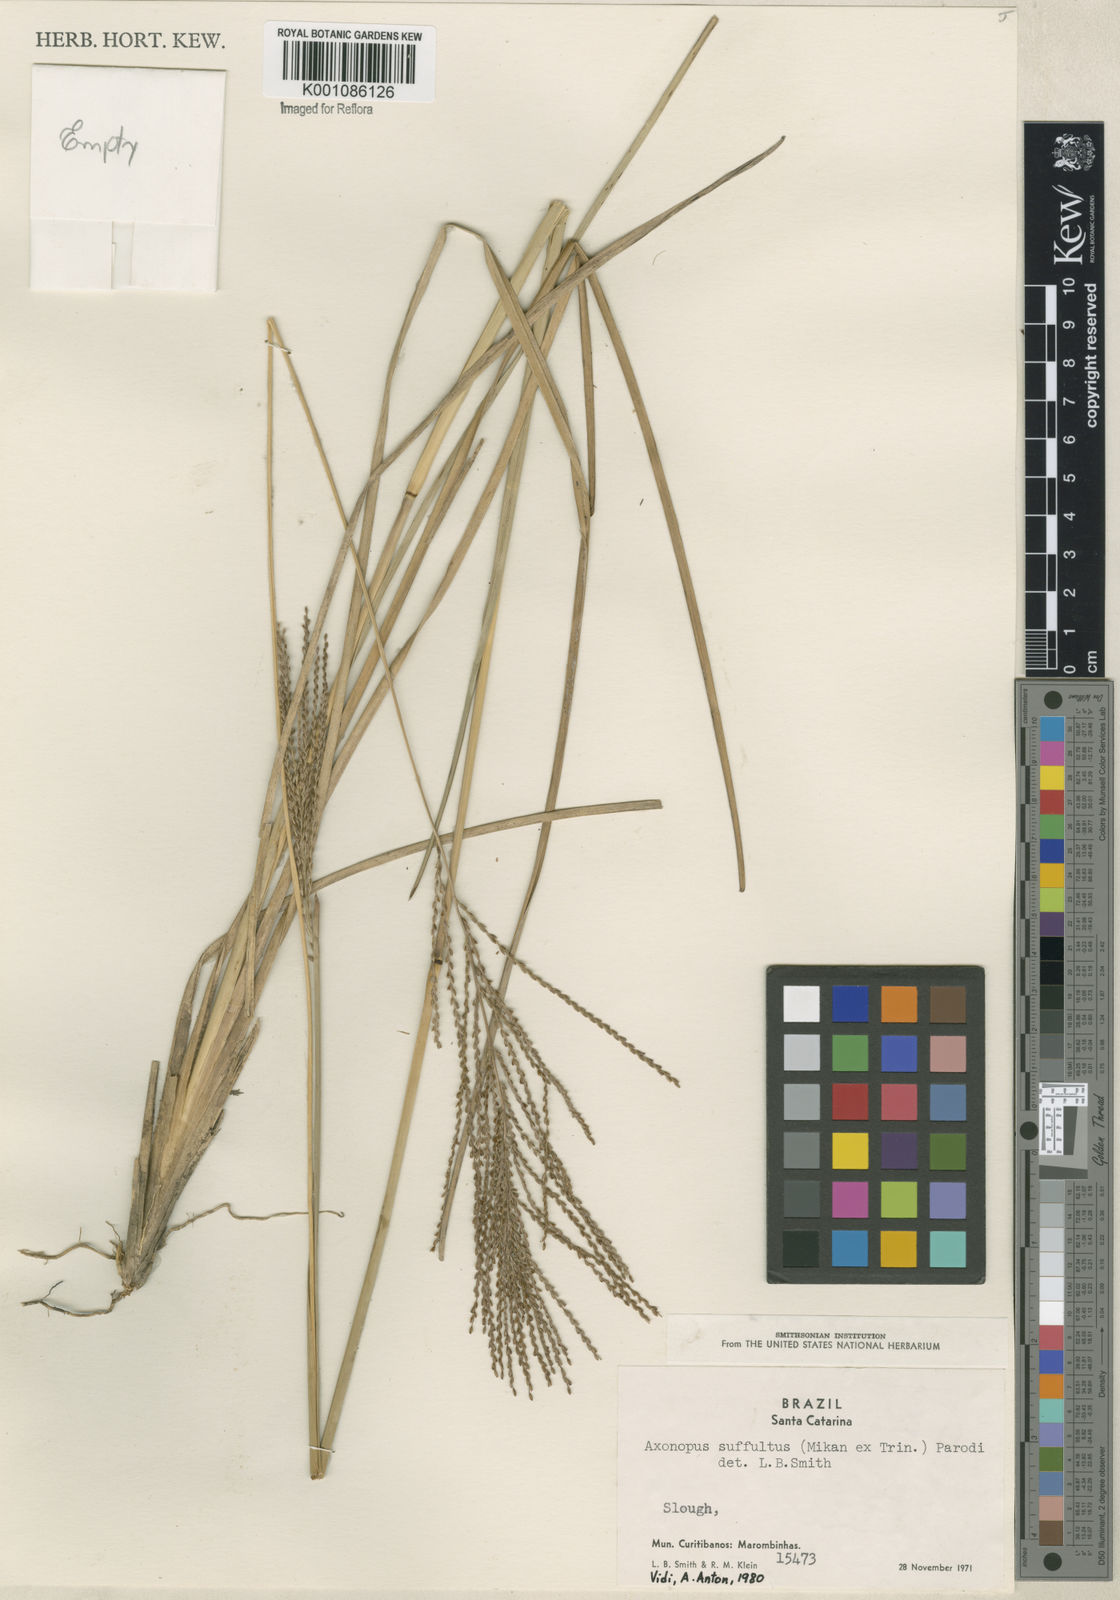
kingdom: Plantae
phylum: Tracheophyta
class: Liliopsida
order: Poales
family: Poaceae
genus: Axonopus
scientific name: Axonopus suffultus
